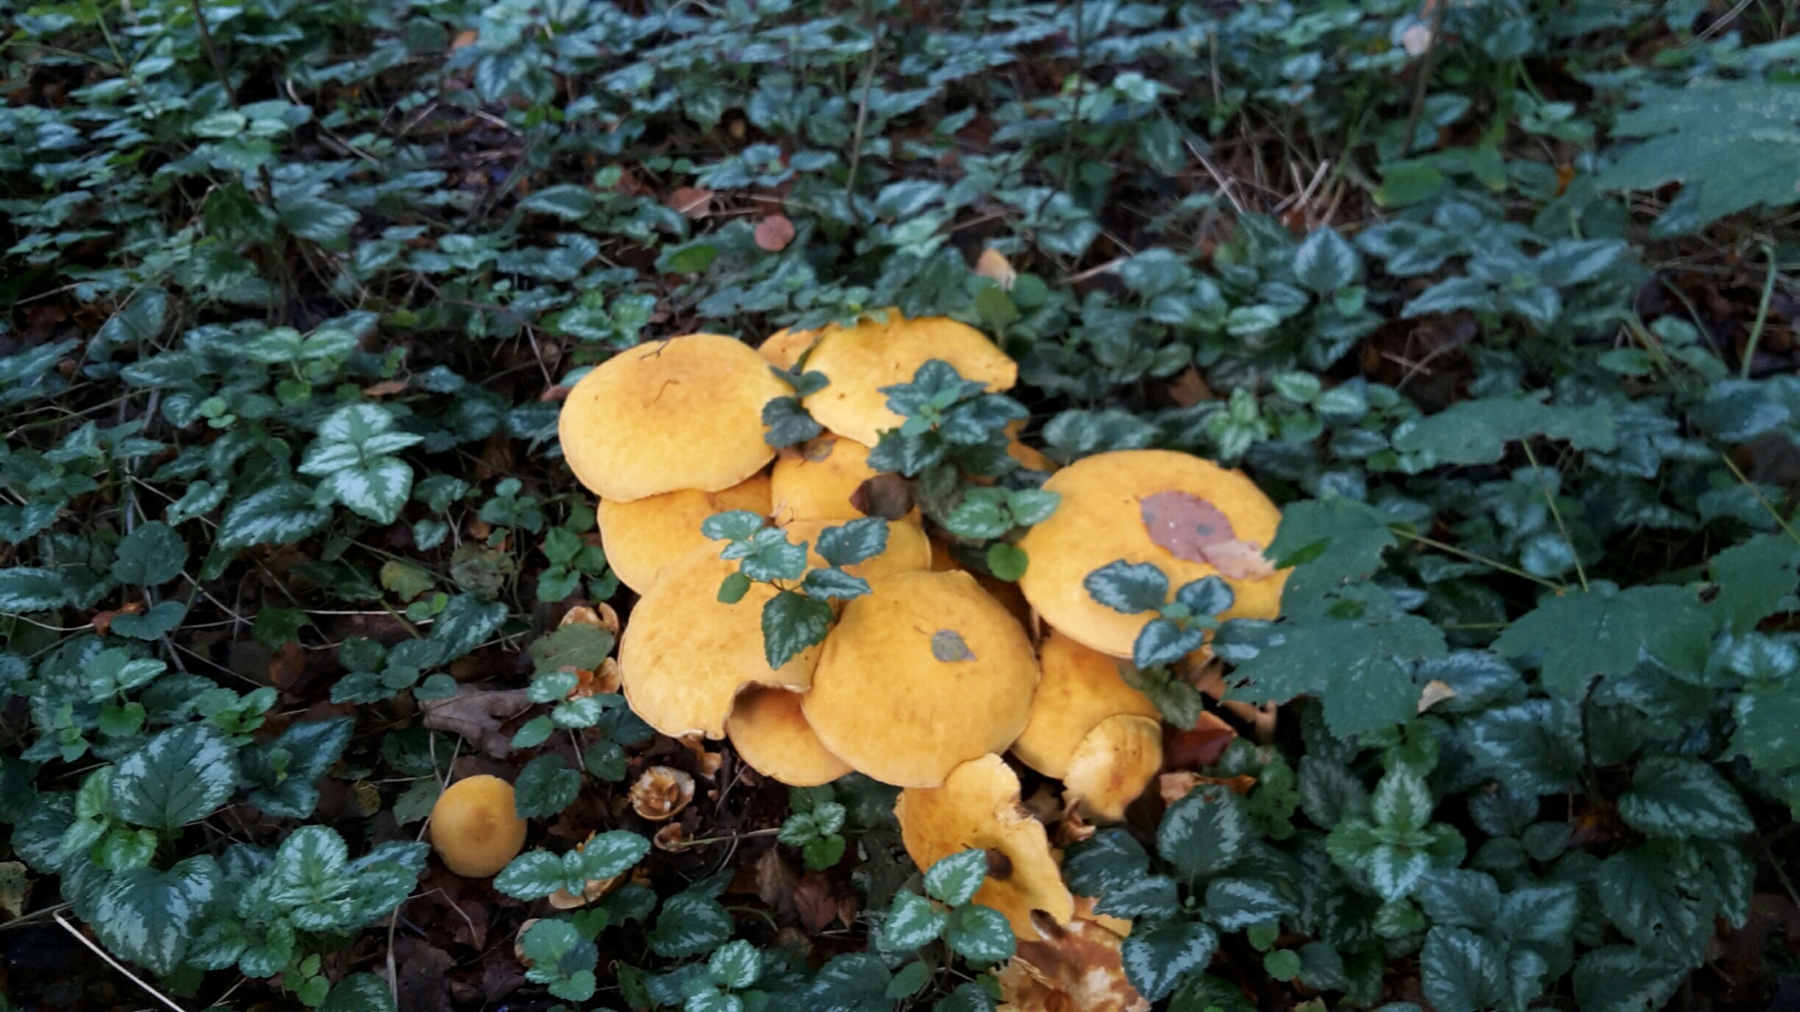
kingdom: Fungi
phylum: Basidiomycota
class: Agaricomycetes
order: Agaricales
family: Tricholomataceae
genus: Phaeolepiota
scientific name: Phaeolepiota aurea
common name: gyldenhat
